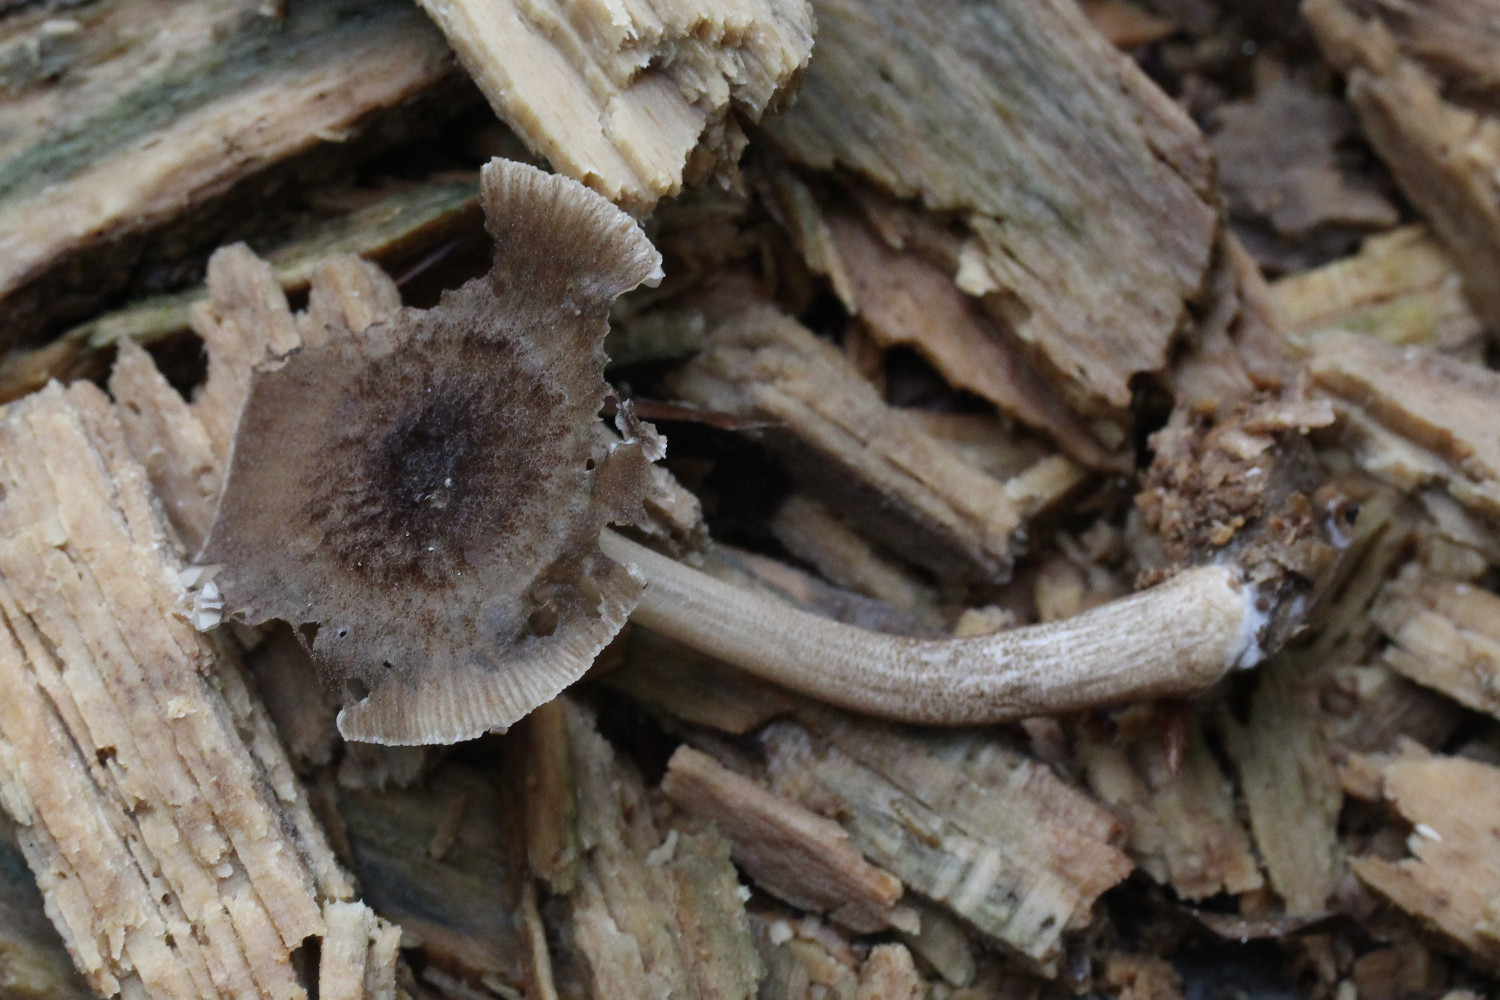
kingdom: Fungi
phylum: Basidiomycota
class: Agaricomycetes
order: Agaricales
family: Pluteaceae
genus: Pluteus
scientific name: Pluteus plautus
